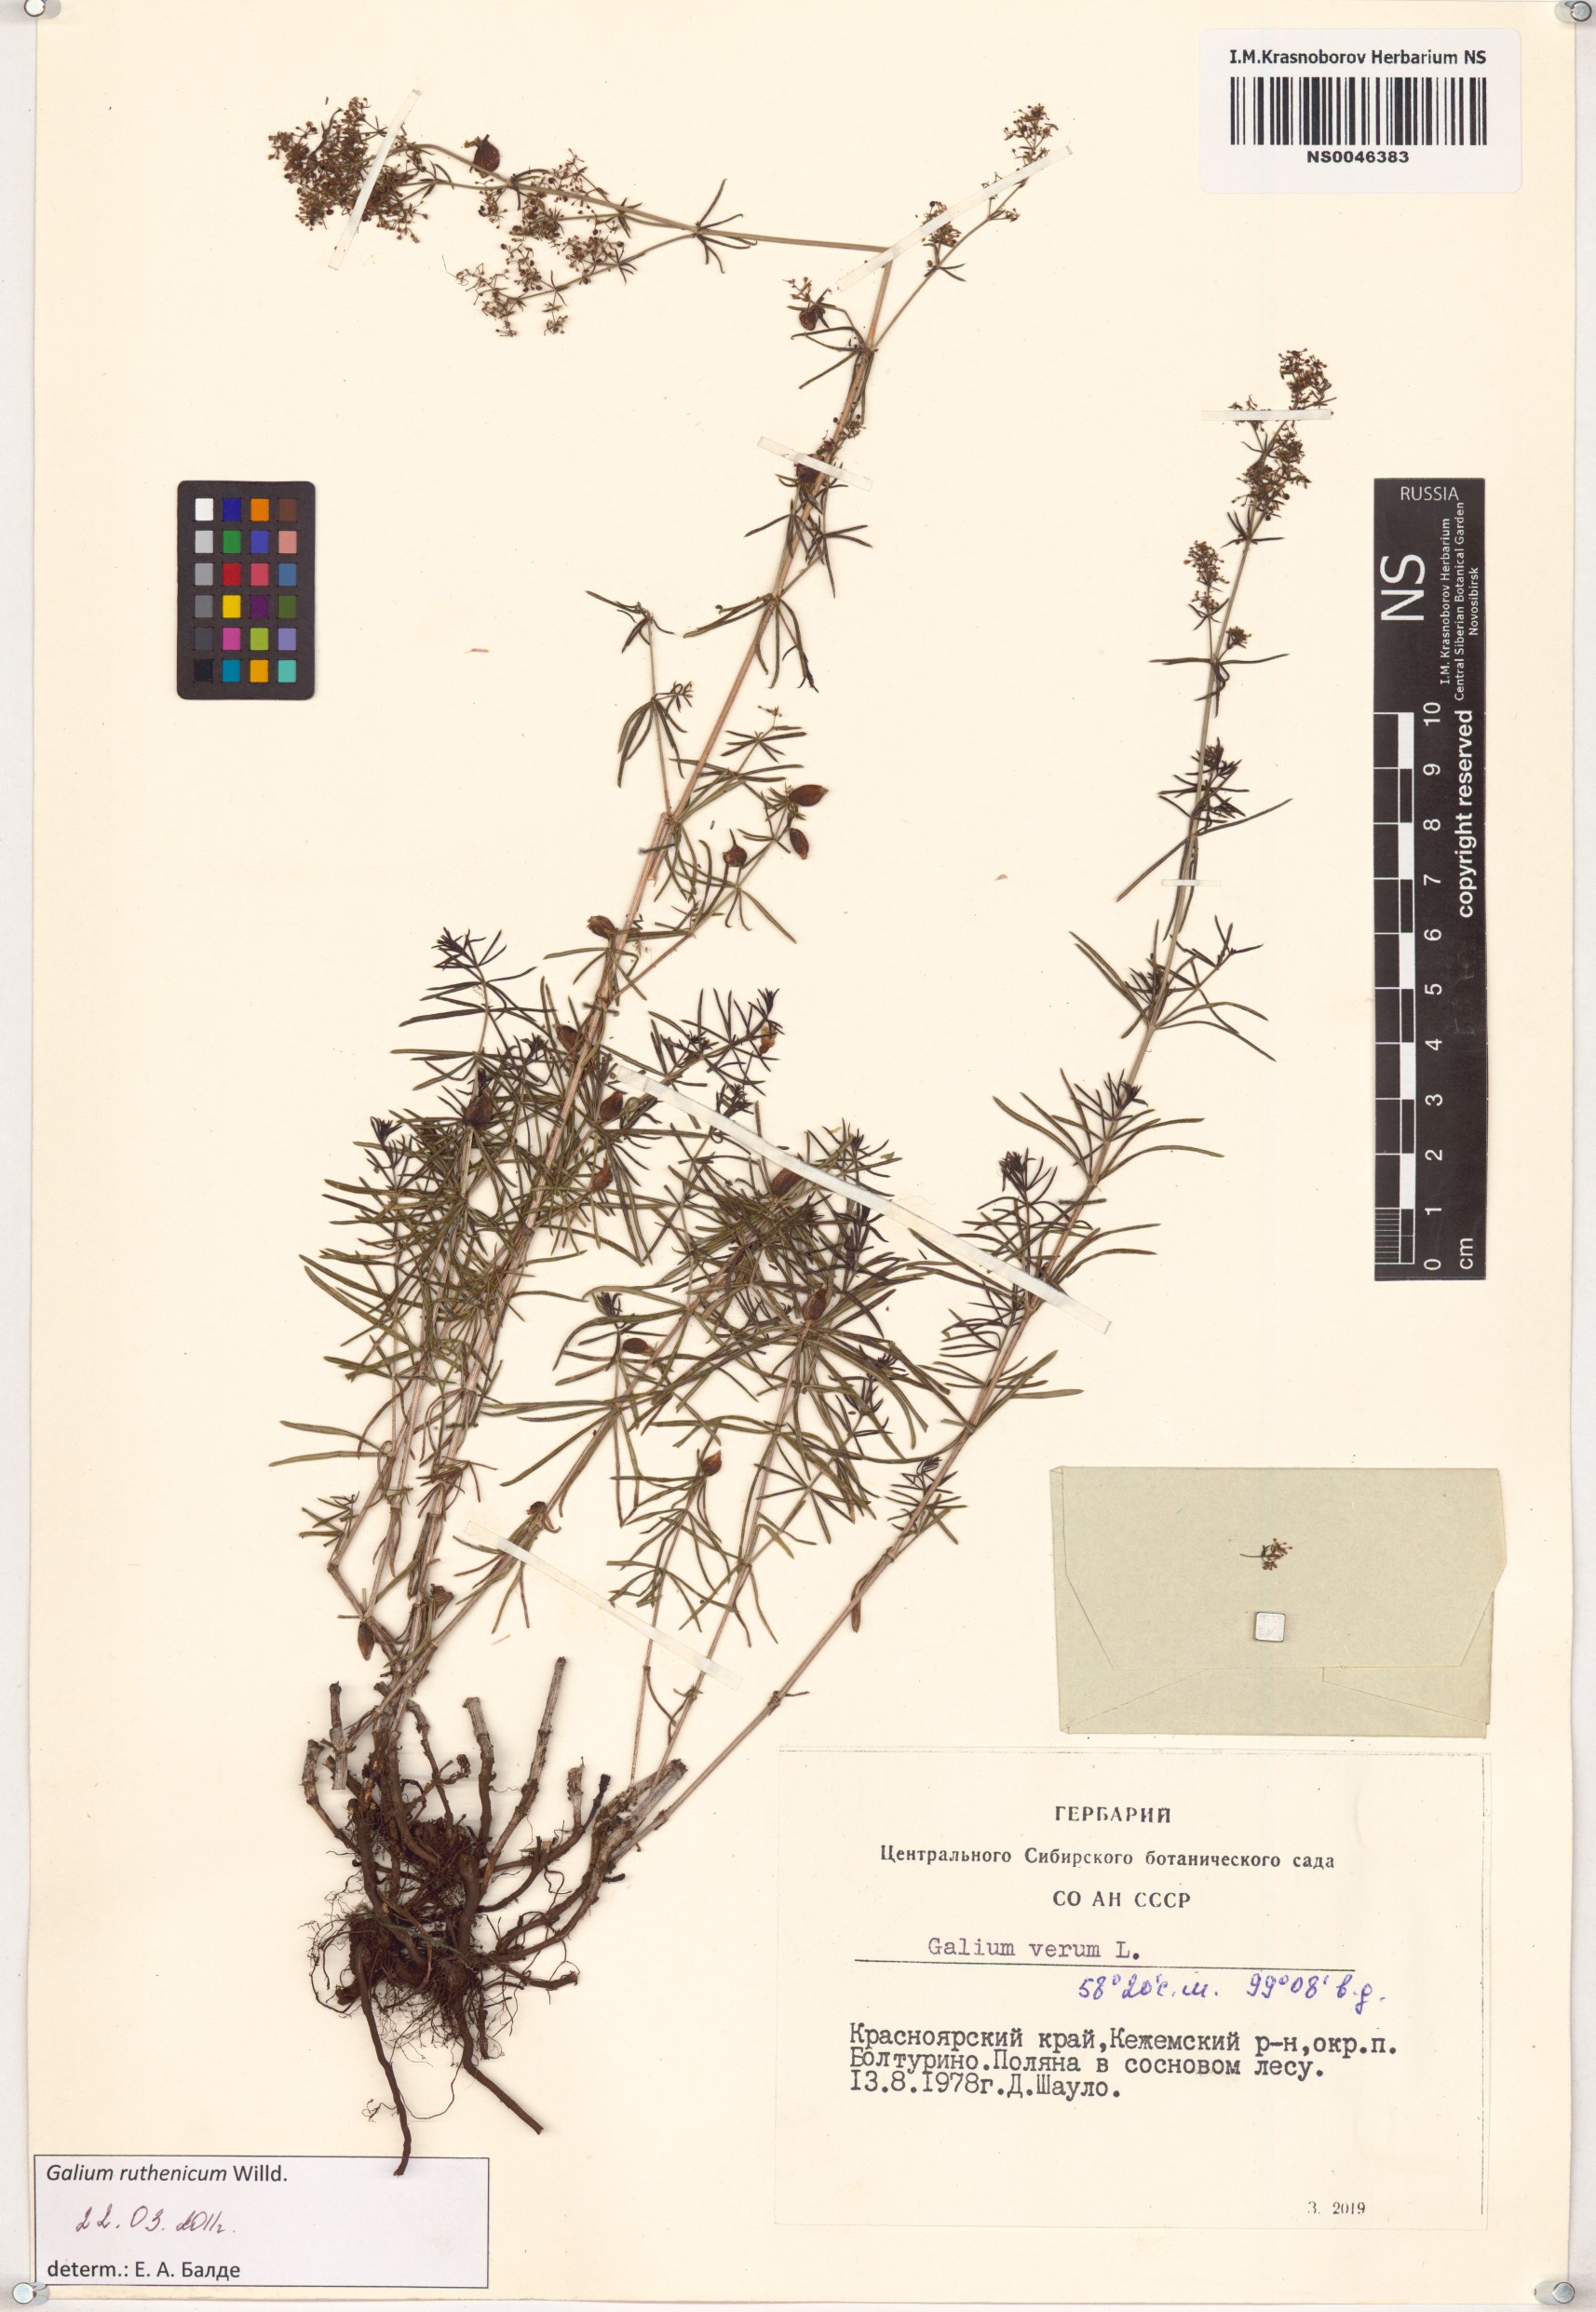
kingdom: Plantae
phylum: Tracheophyta
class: Magnoliopsida
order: Gentianales
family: Rubiaceae
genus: Galium
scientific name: Galium verum
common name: Lady's bedstraw
